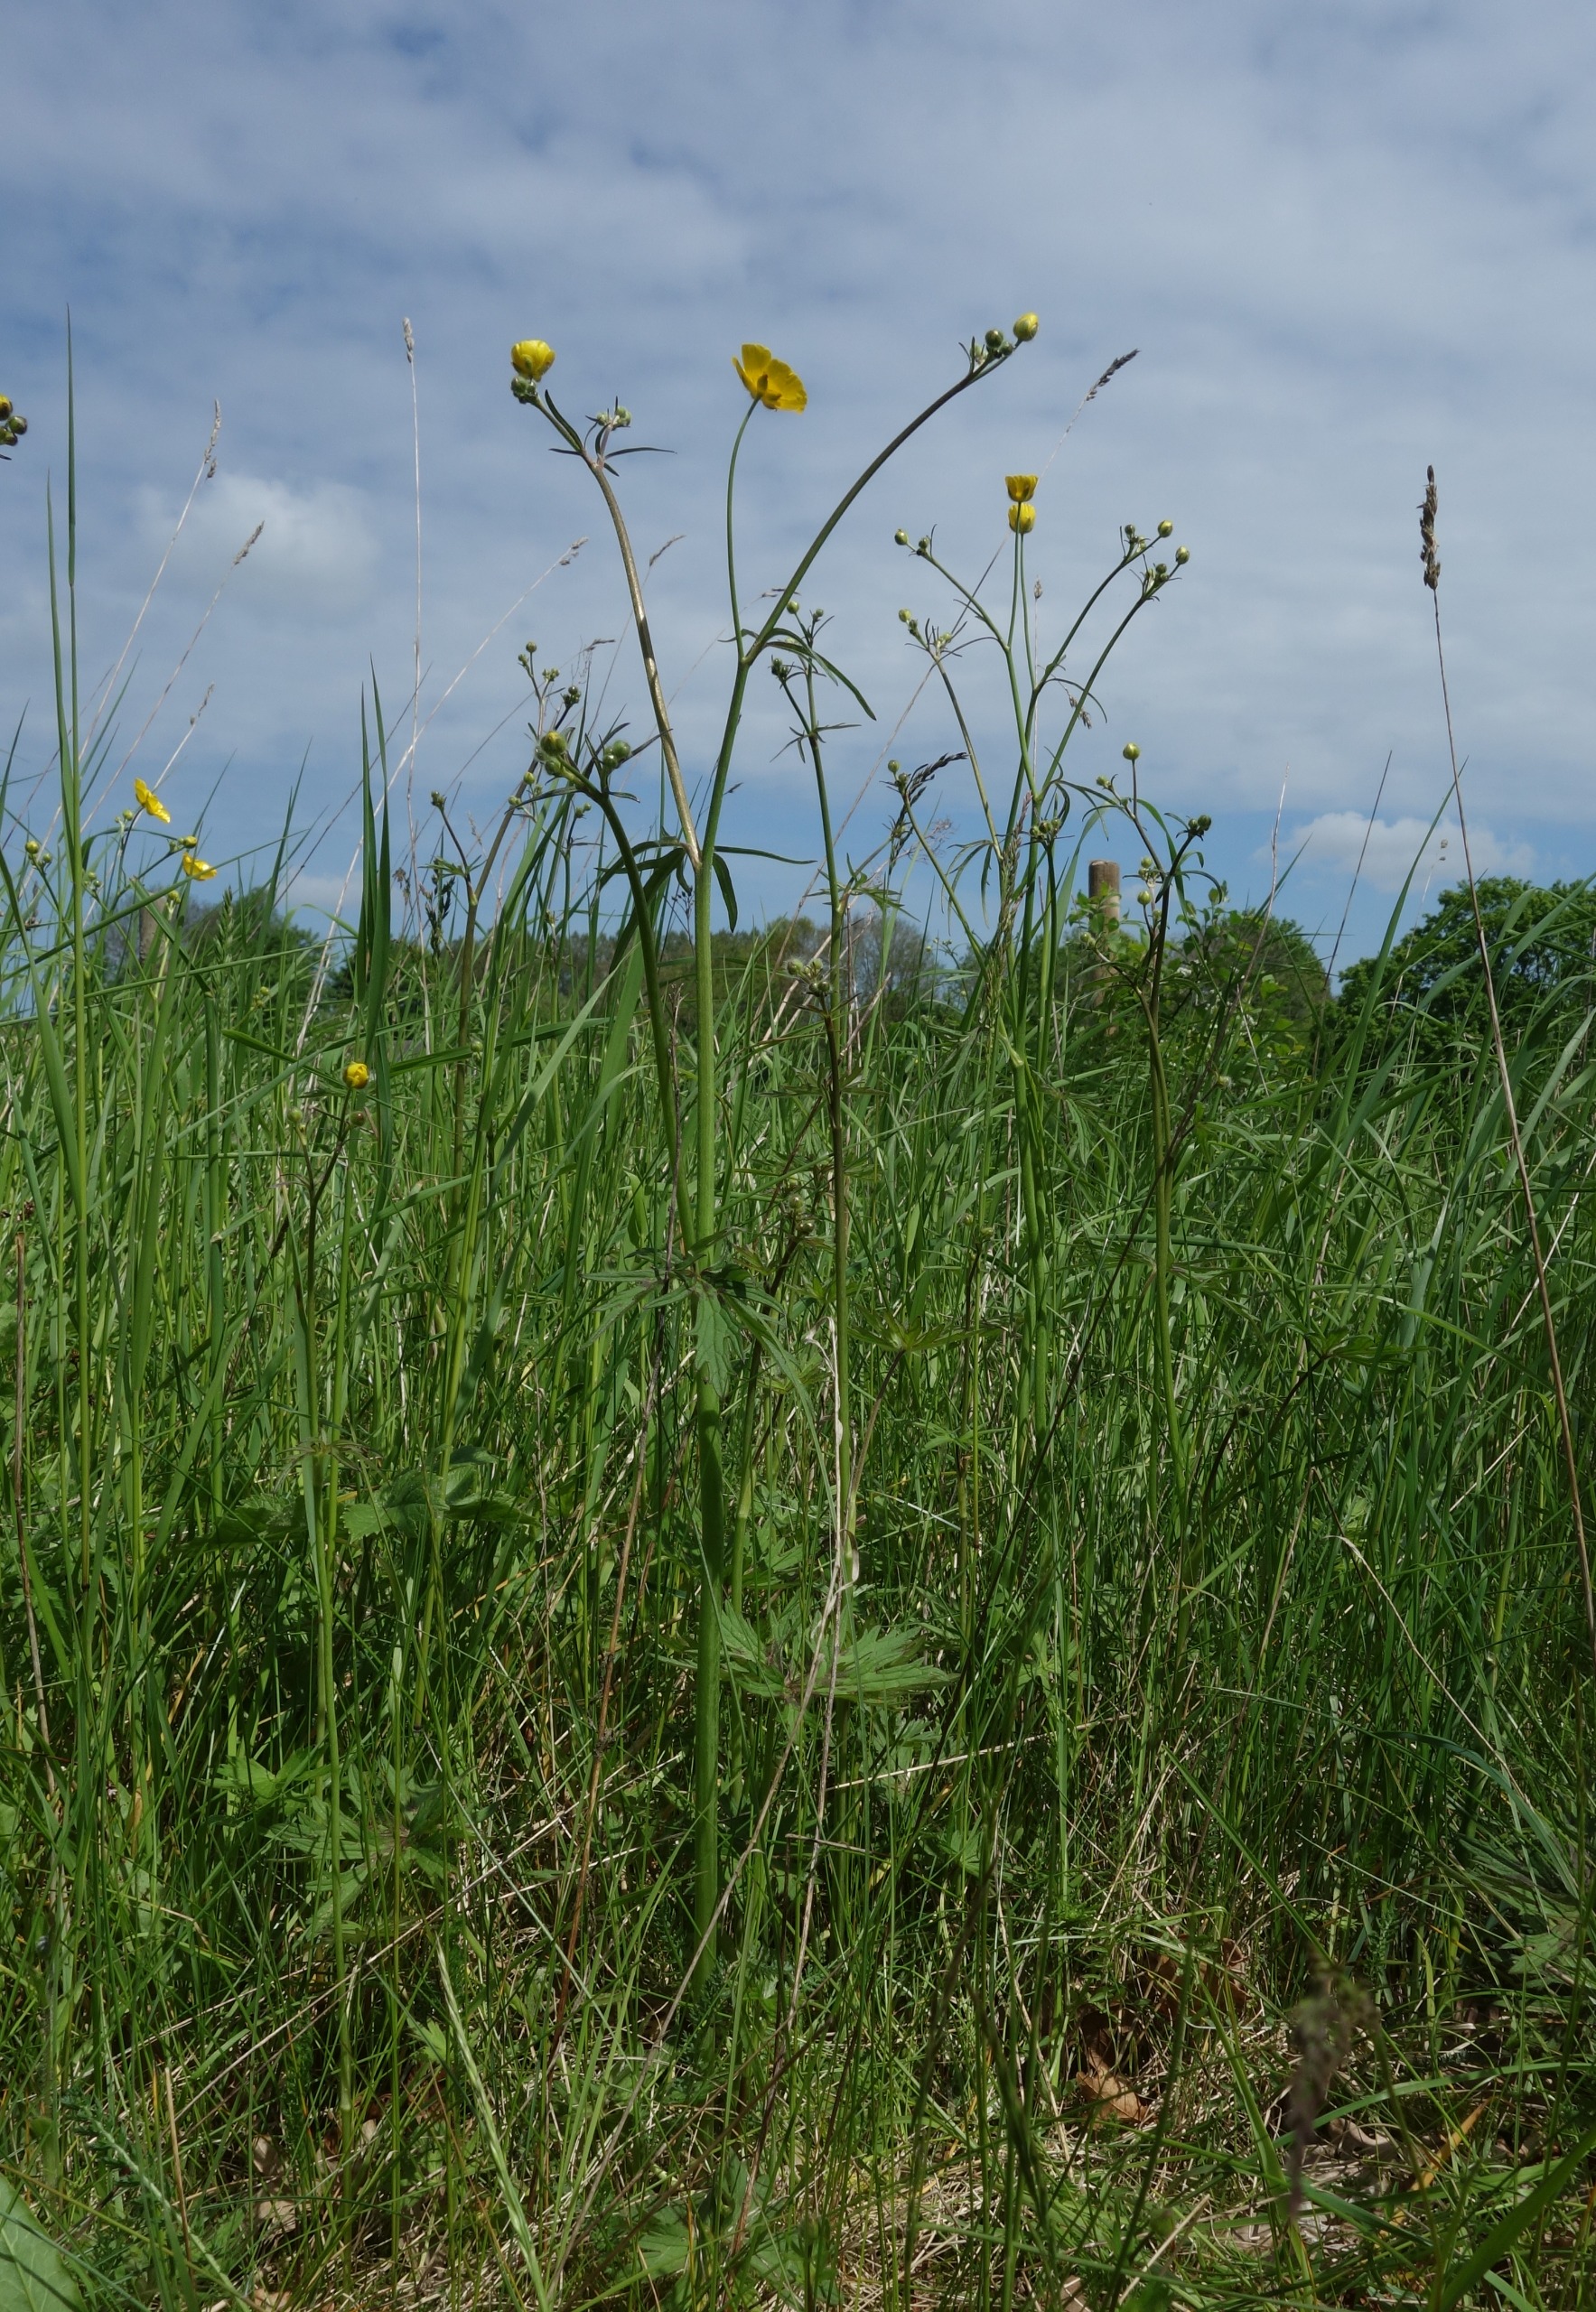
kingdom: Plantae
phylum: Tracheophyta
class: Magnoliopsida
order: Ranunculales
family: Ranunculaceae
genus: Ranunculus
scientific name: Ranunculus acris
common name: Bidende ranunkel
